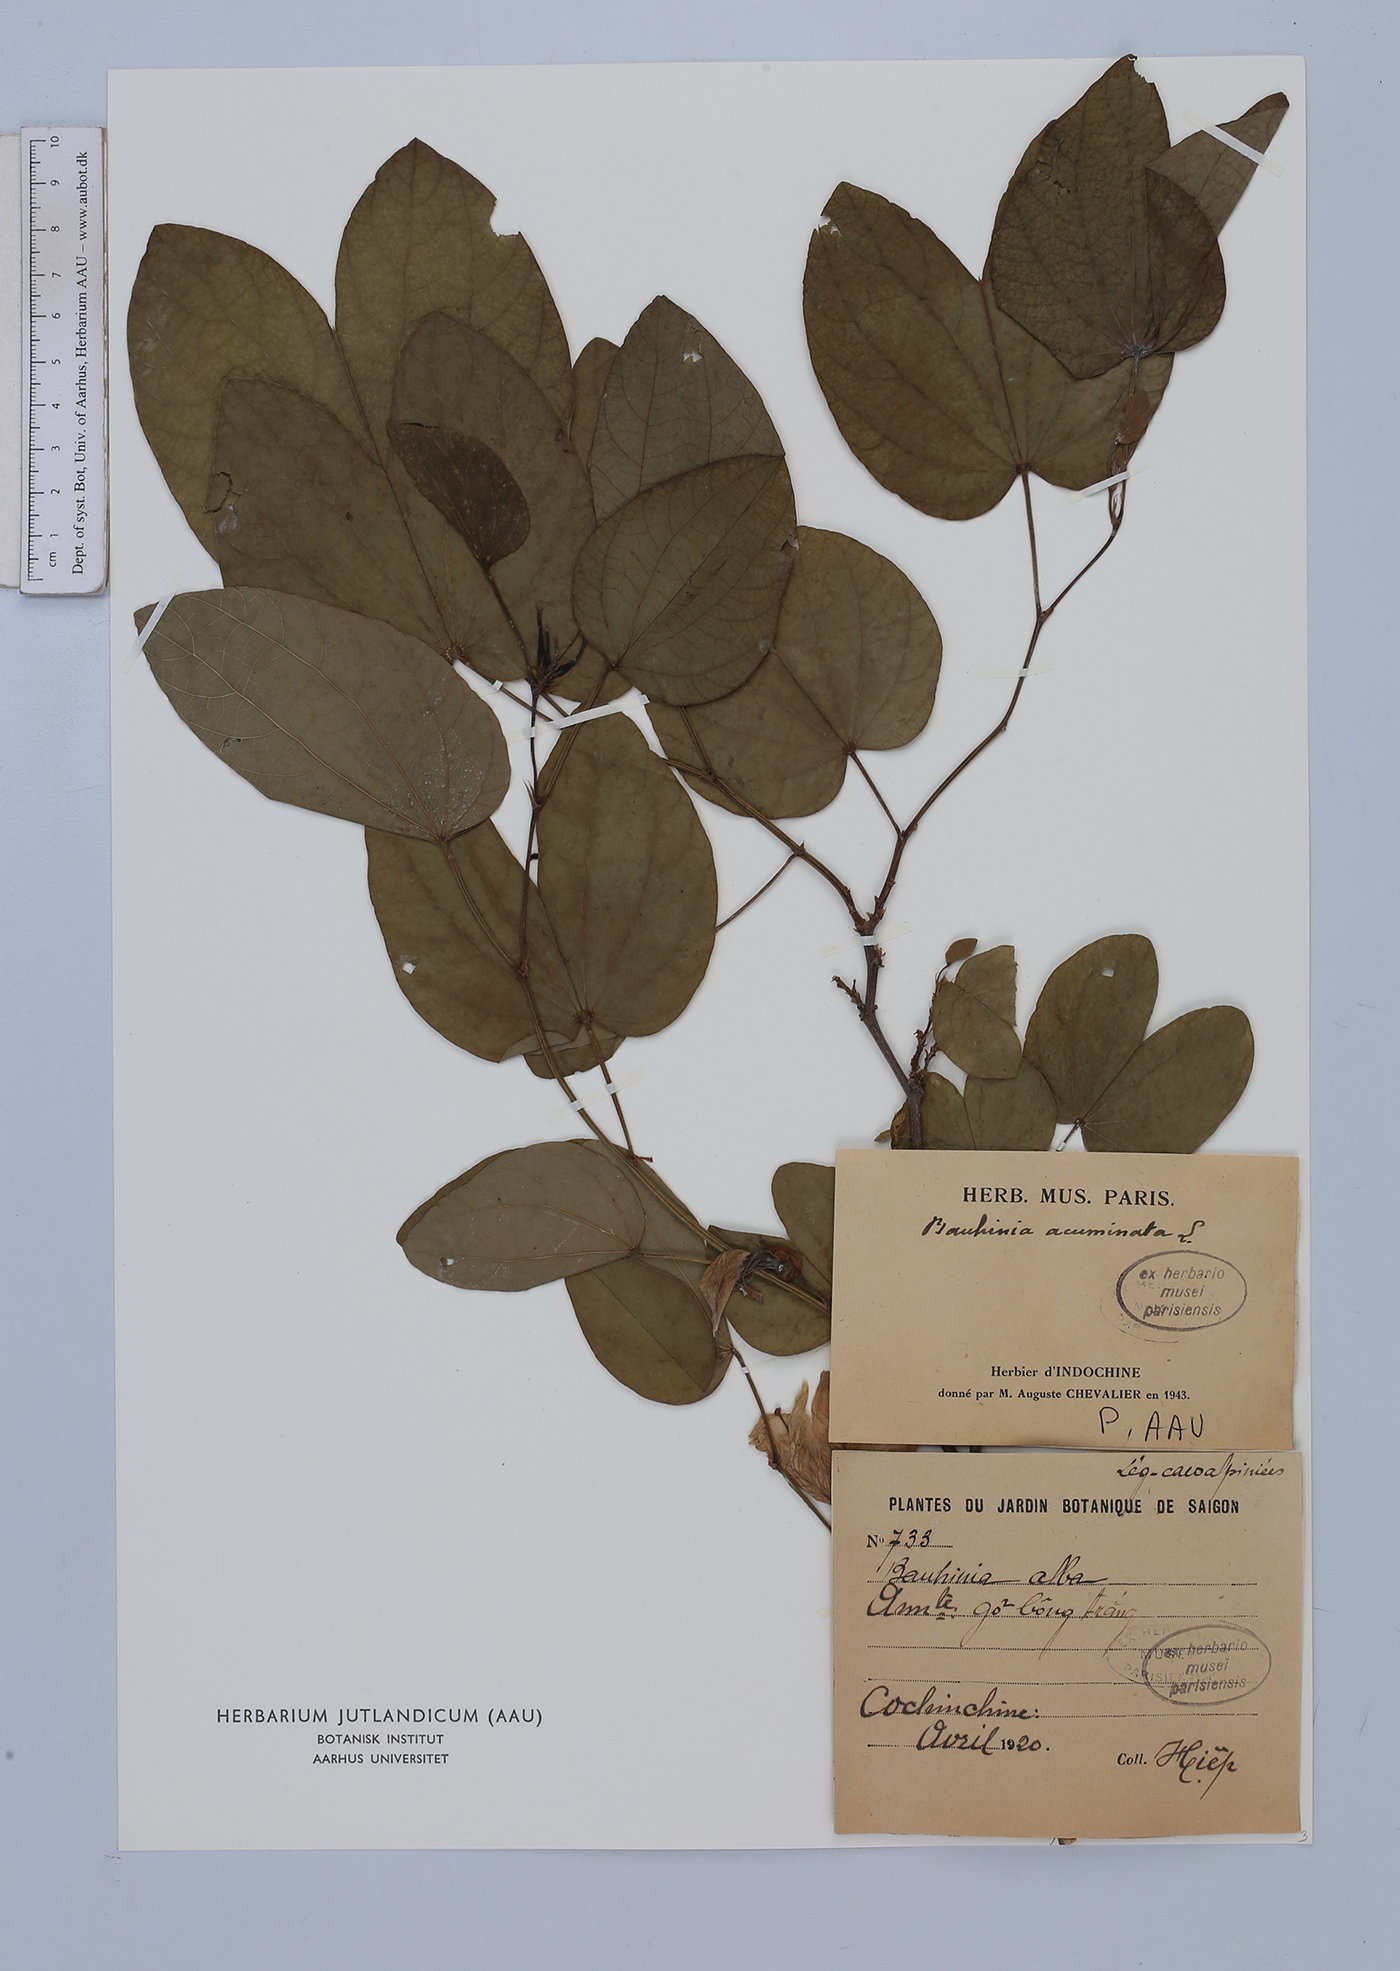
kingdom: Plantae
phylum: Tracheophyta
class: Magnoliopsida
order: Fabales
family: Fabaceae
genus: Bauhinia
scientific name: Bauhinia acuminata
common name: Dwarf white bauhinia
